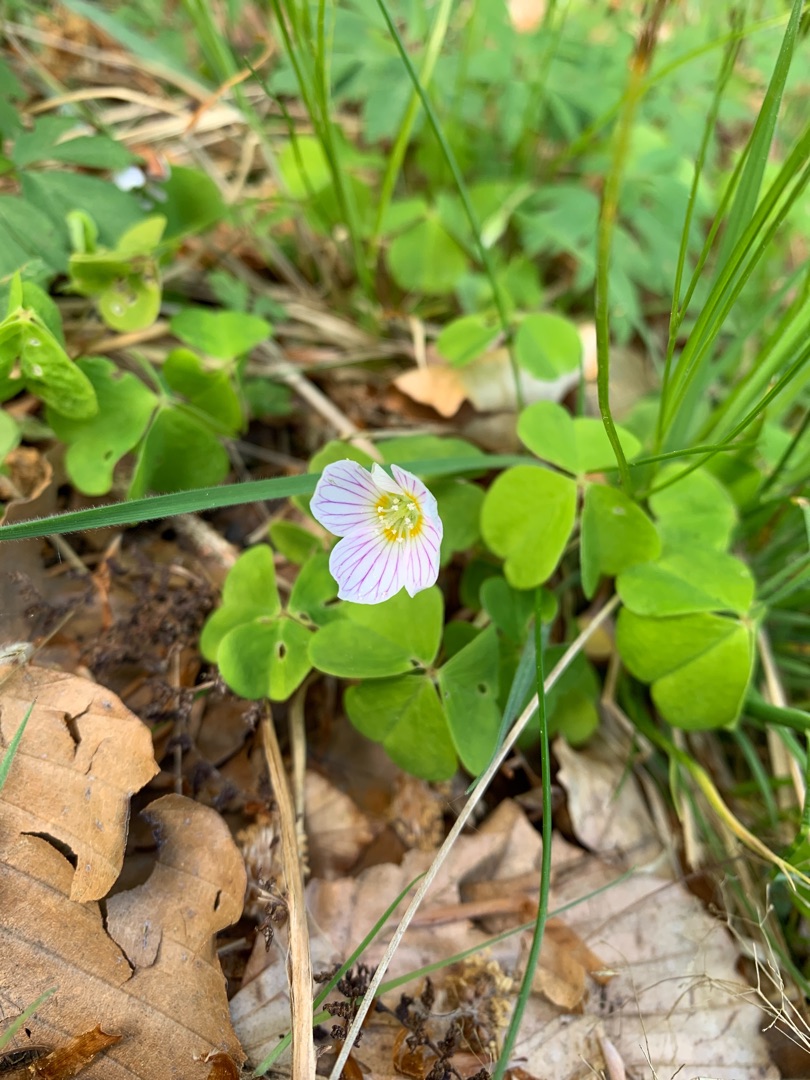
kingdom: Plantae
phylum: Tracheophyta
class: Magnoliopsida
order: Oxalidales
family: Oxalidaceae
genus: Oxalis
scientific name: Oxalis acetosella
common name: Skovsyre
